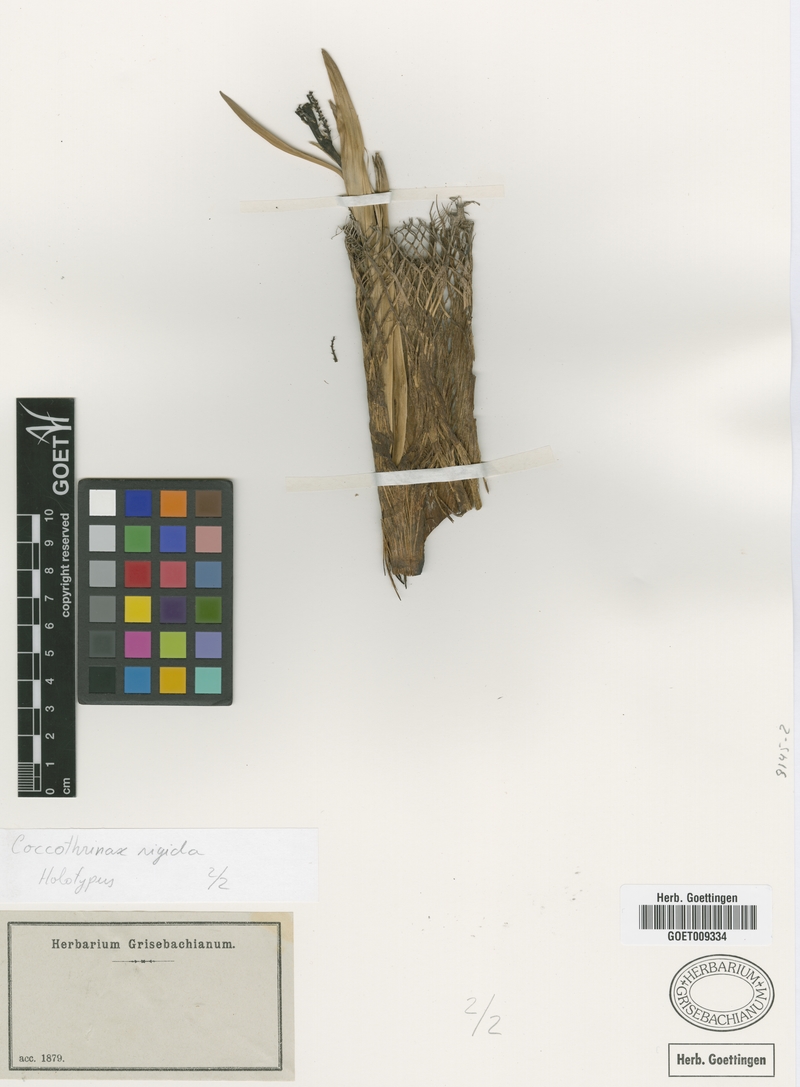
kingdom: Plantae
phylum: Tracheophyta
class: Liliopsida
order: Arecales
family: Arecaceae
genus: Coccothrinax
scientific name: Coccothrinax rigida
